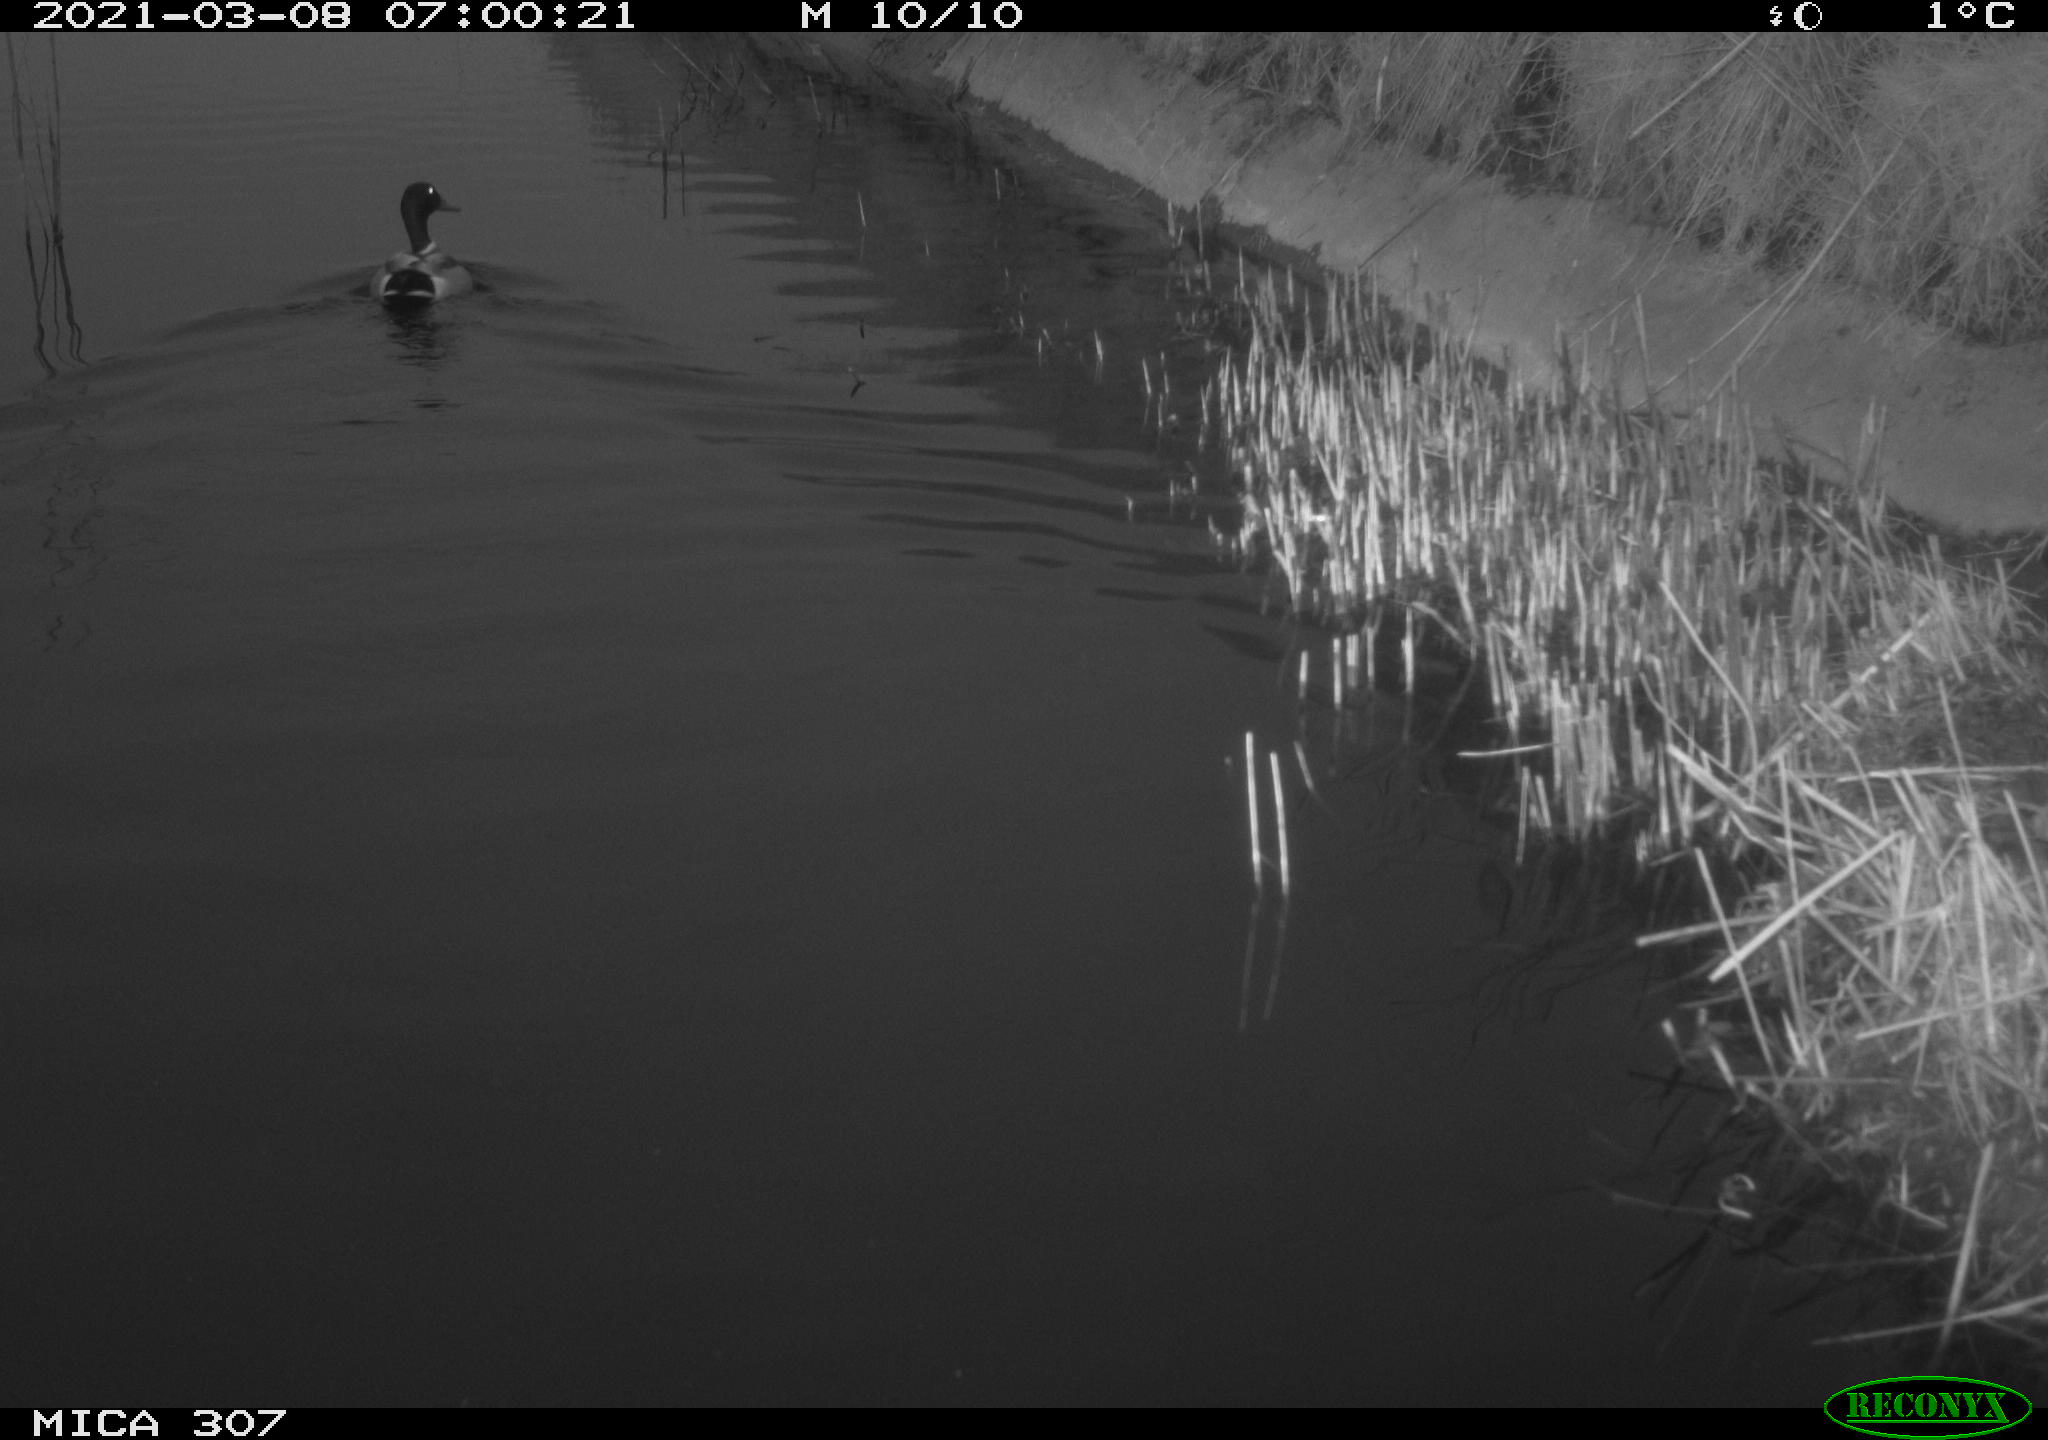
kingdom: Animalia
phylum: Chordata
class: Aves
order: Anseriformes
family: Anatidae
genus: Anas
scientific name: Anas platyrhynchos
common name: Mallard
